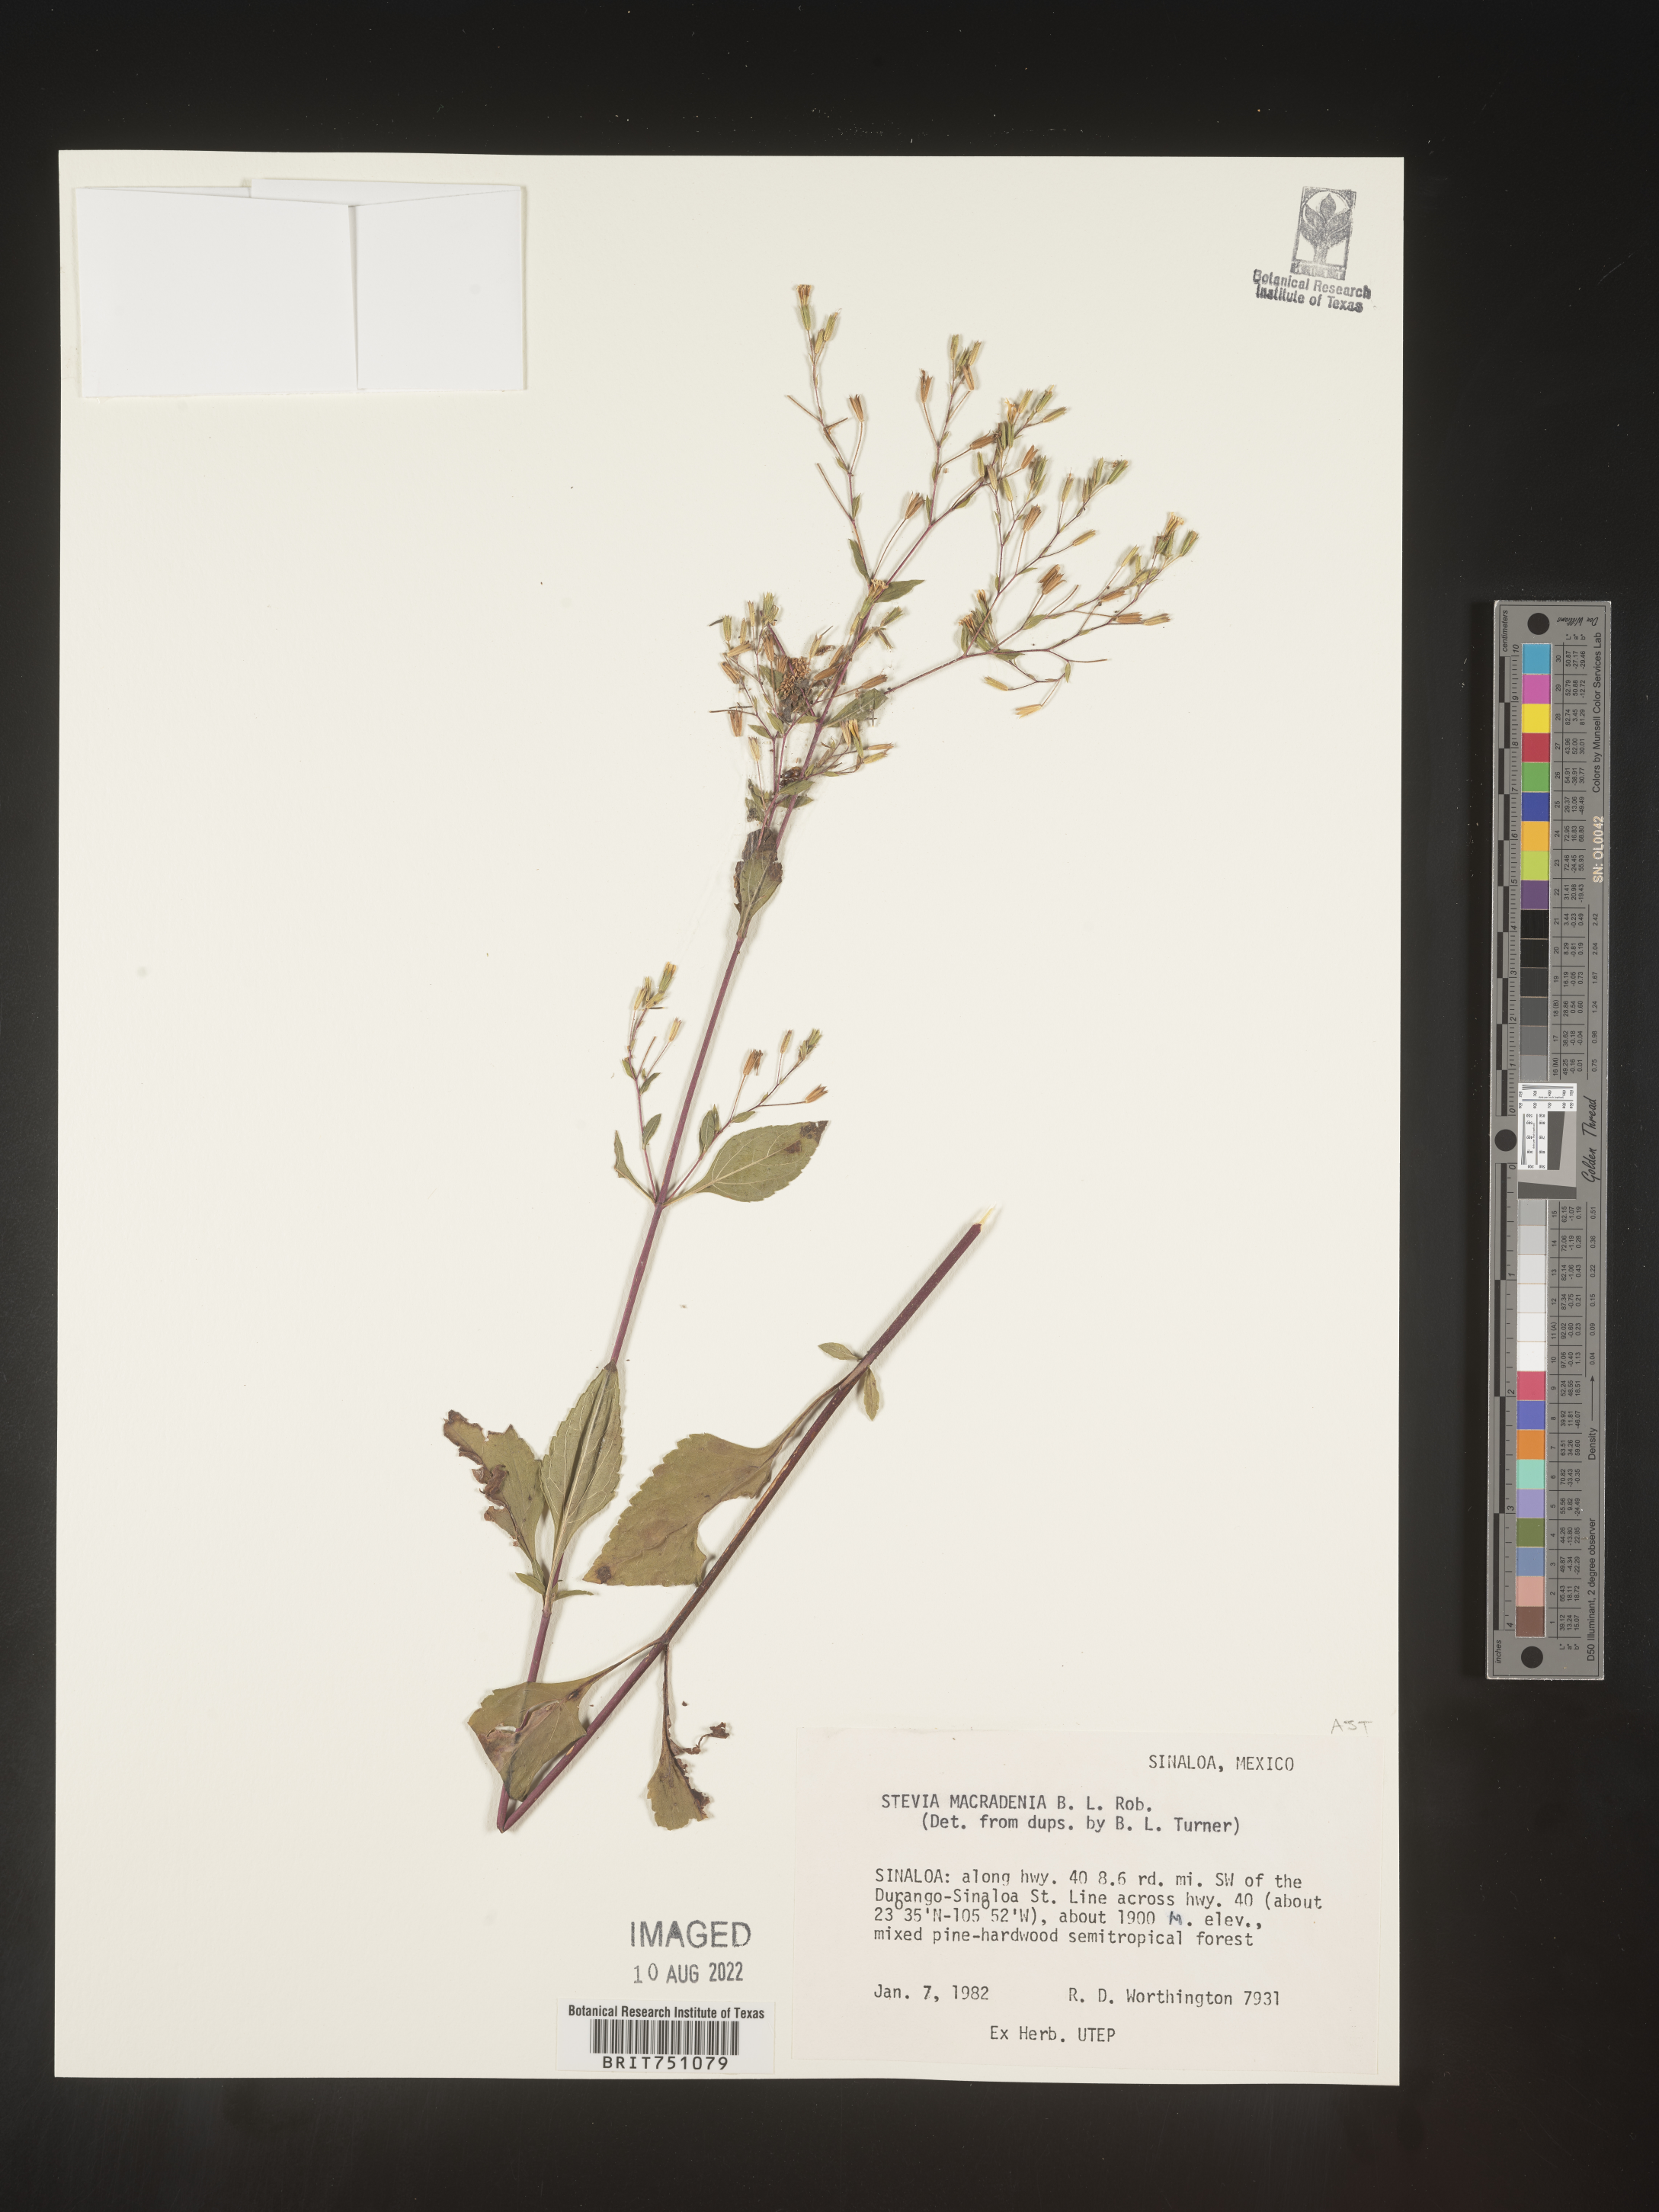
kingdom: Plantae
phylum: Tracheophyta
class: Magnoliopsida
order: Asterales
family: Asteraceae
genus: Stevia
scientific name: Stevia
